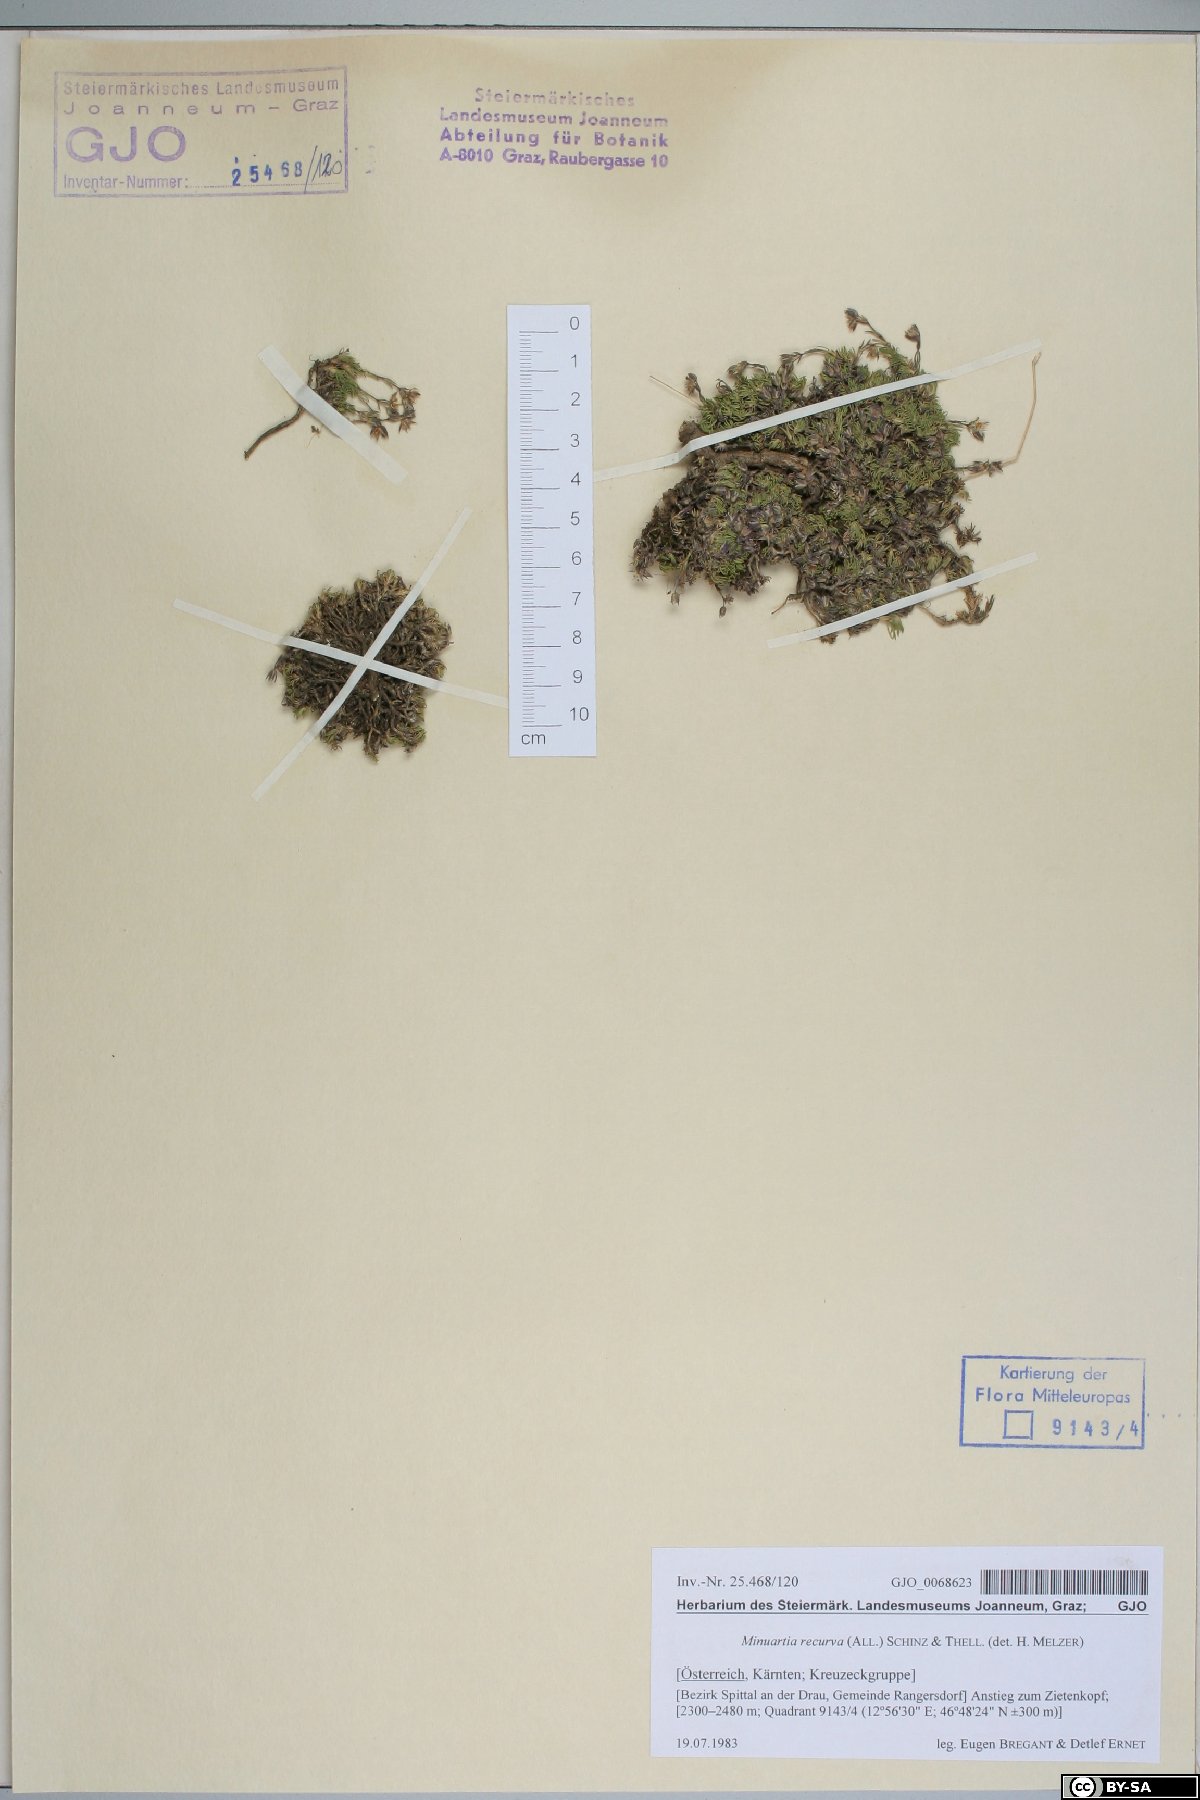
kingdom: Plantae
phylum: Tracheophyta
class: Magnoliopsida
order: Caryophyllales
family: Caryophyllaceae
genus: Minuartia
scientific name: Minuartia recurva
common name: Recurved sandwort
